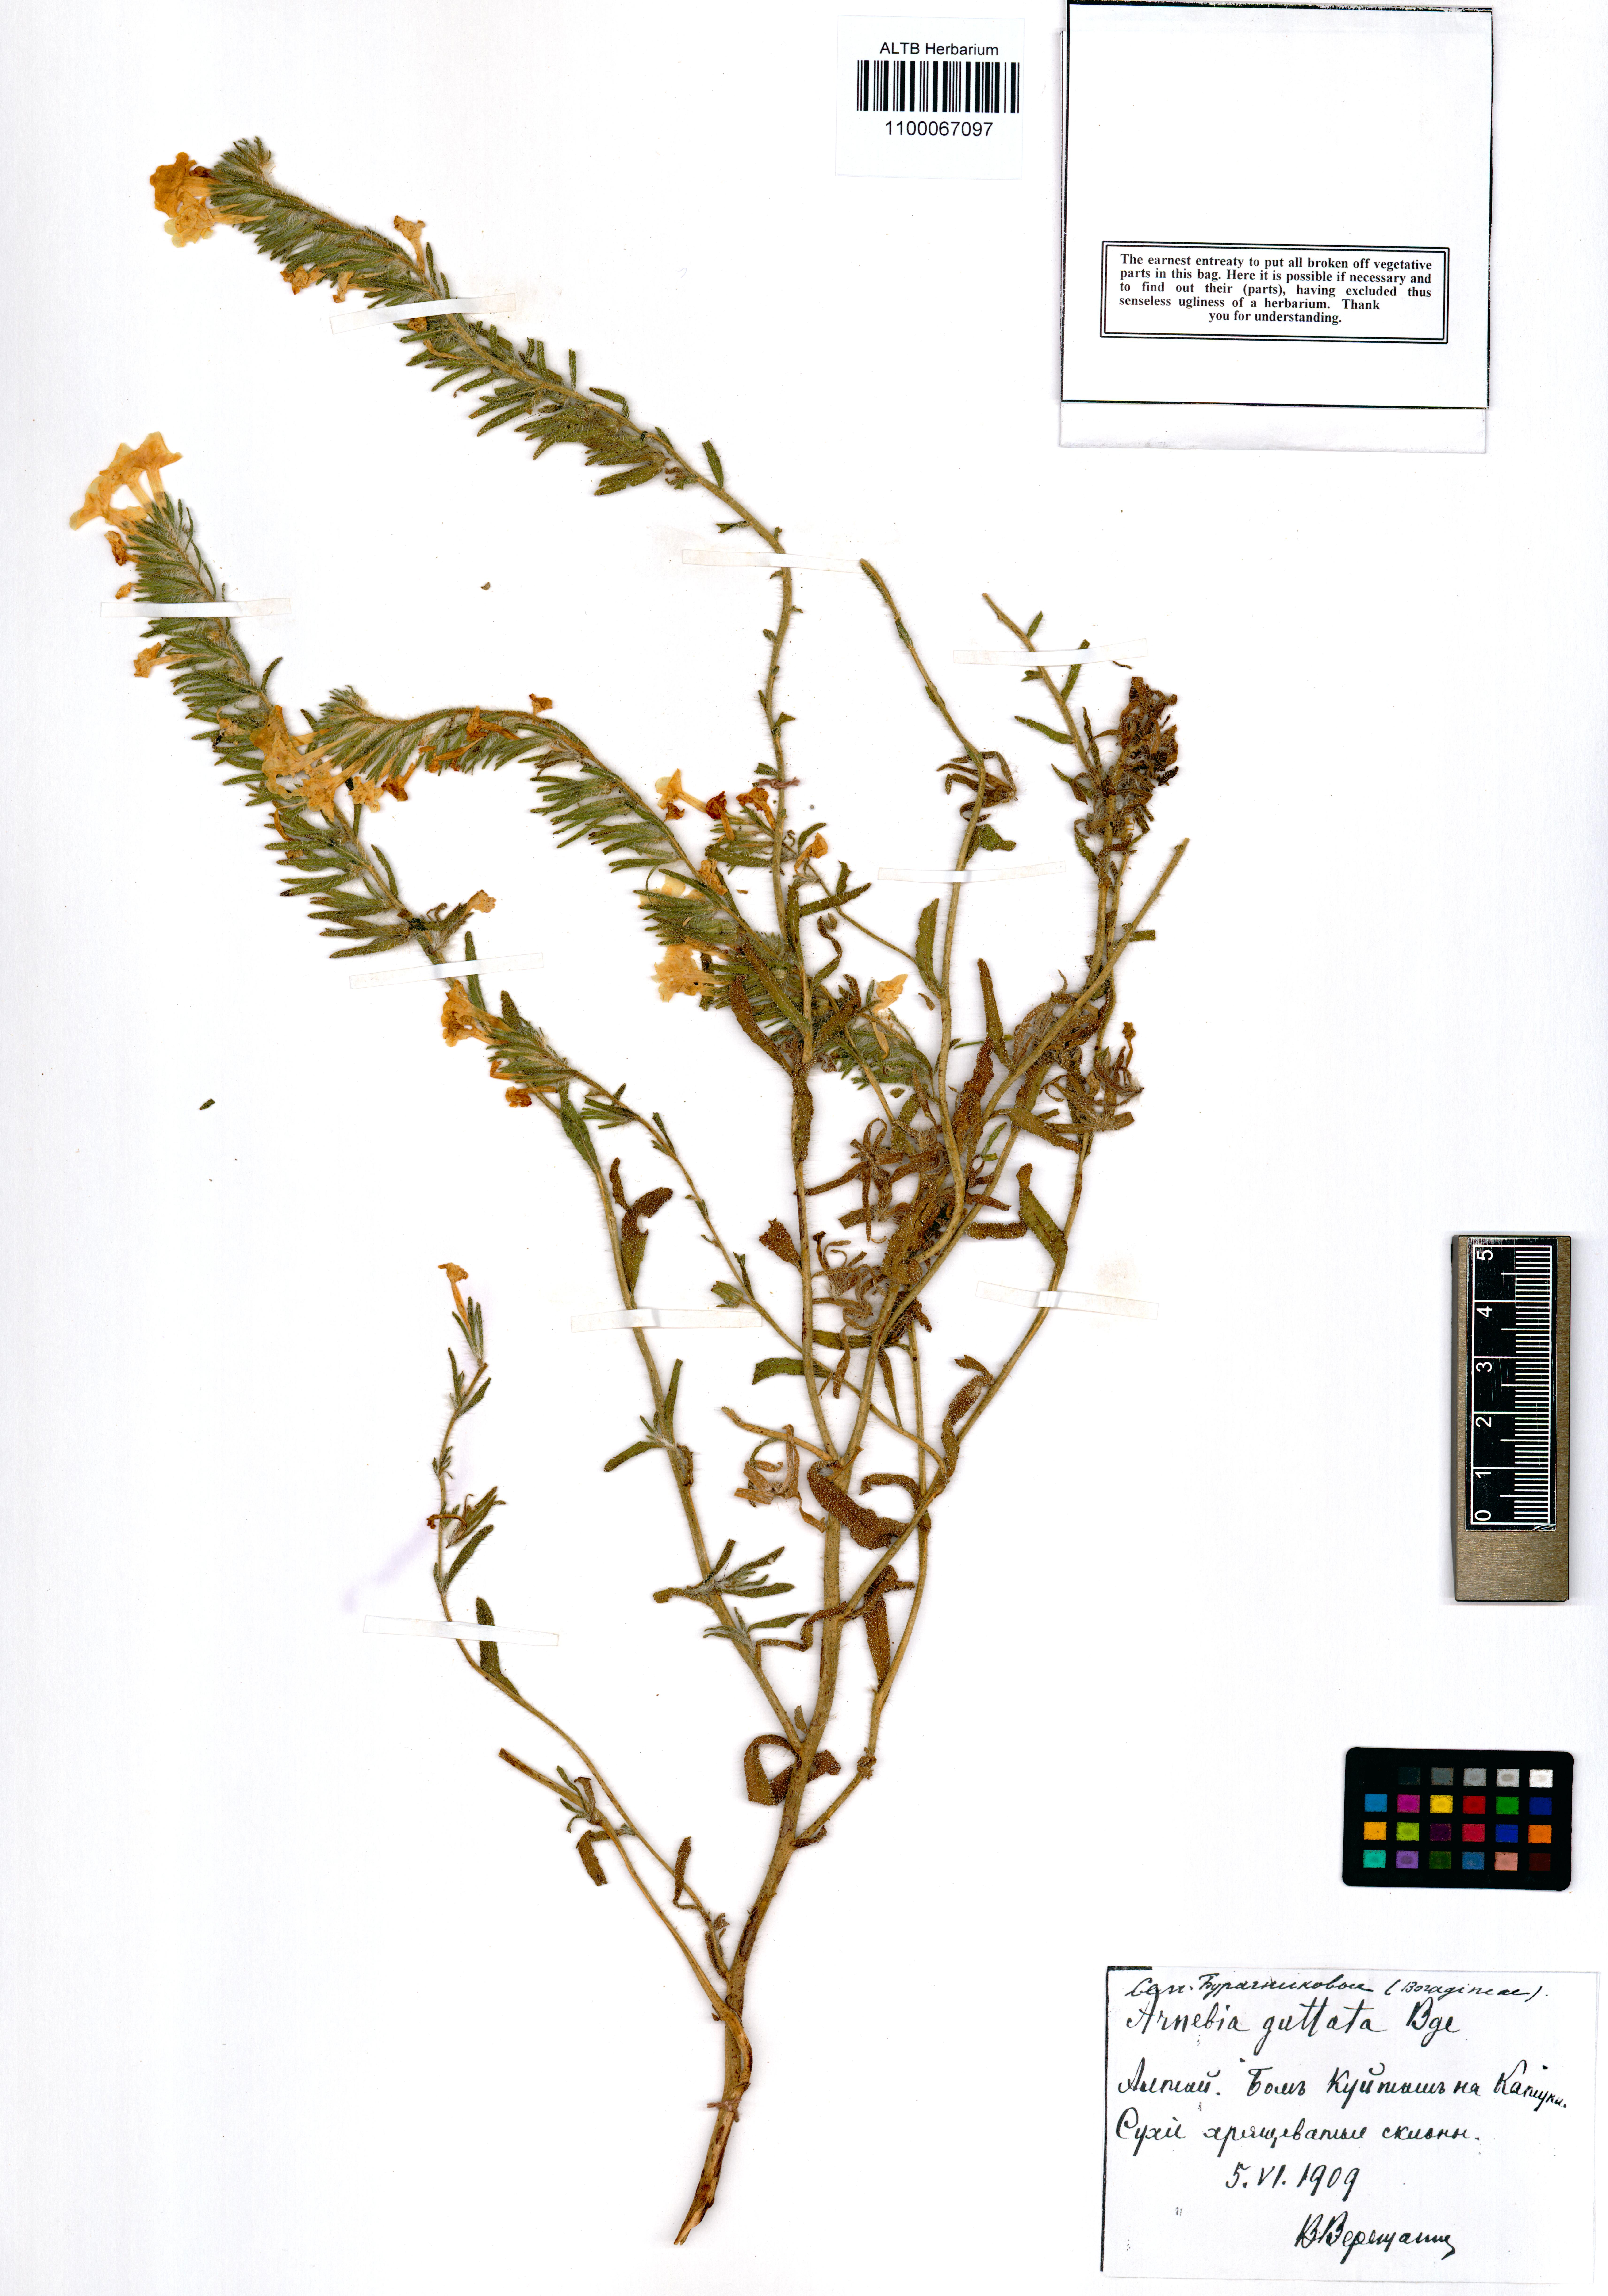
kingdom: Plantae
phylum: Tracheophyta
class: Magnoliopsida
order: Boraginales
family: Boraginaceae
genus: Arnebia
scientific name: Arnebia guttata
